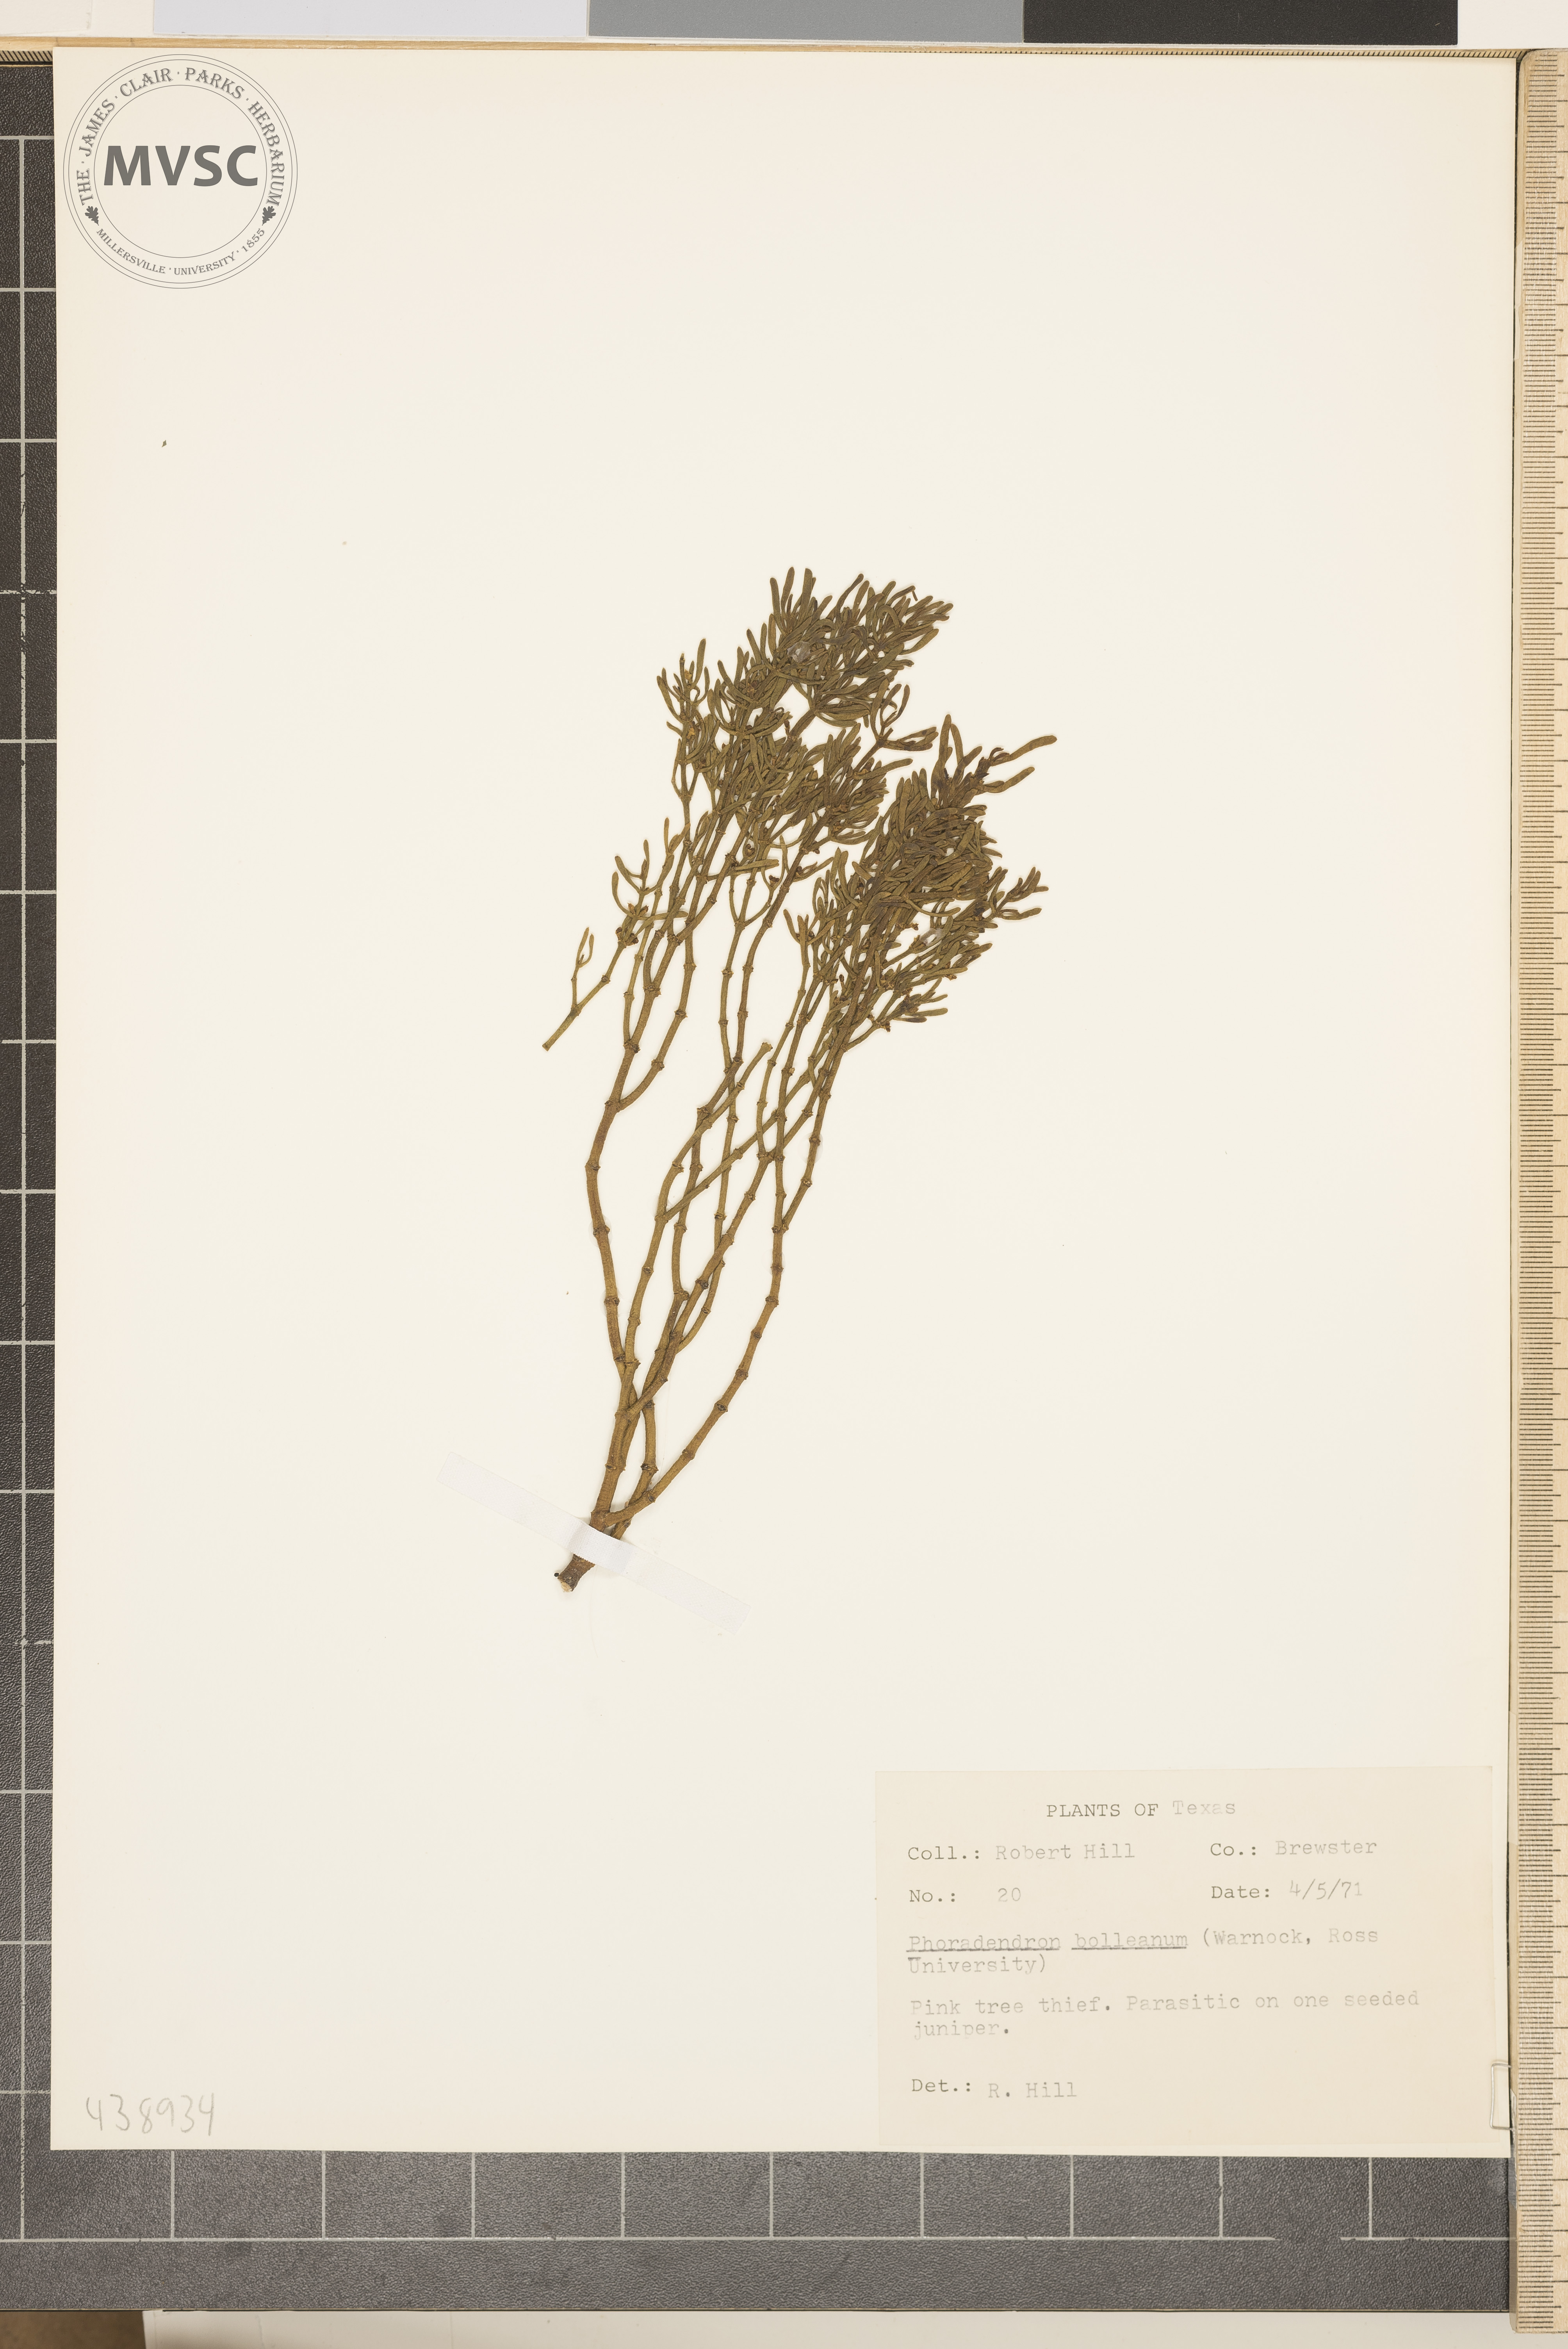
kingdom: Plantae
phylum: Tracheophyta
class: Magnoliopsida
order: Santalales
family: Viscaceae
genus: Phoradendron
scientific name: Phoradendron bolleanum
